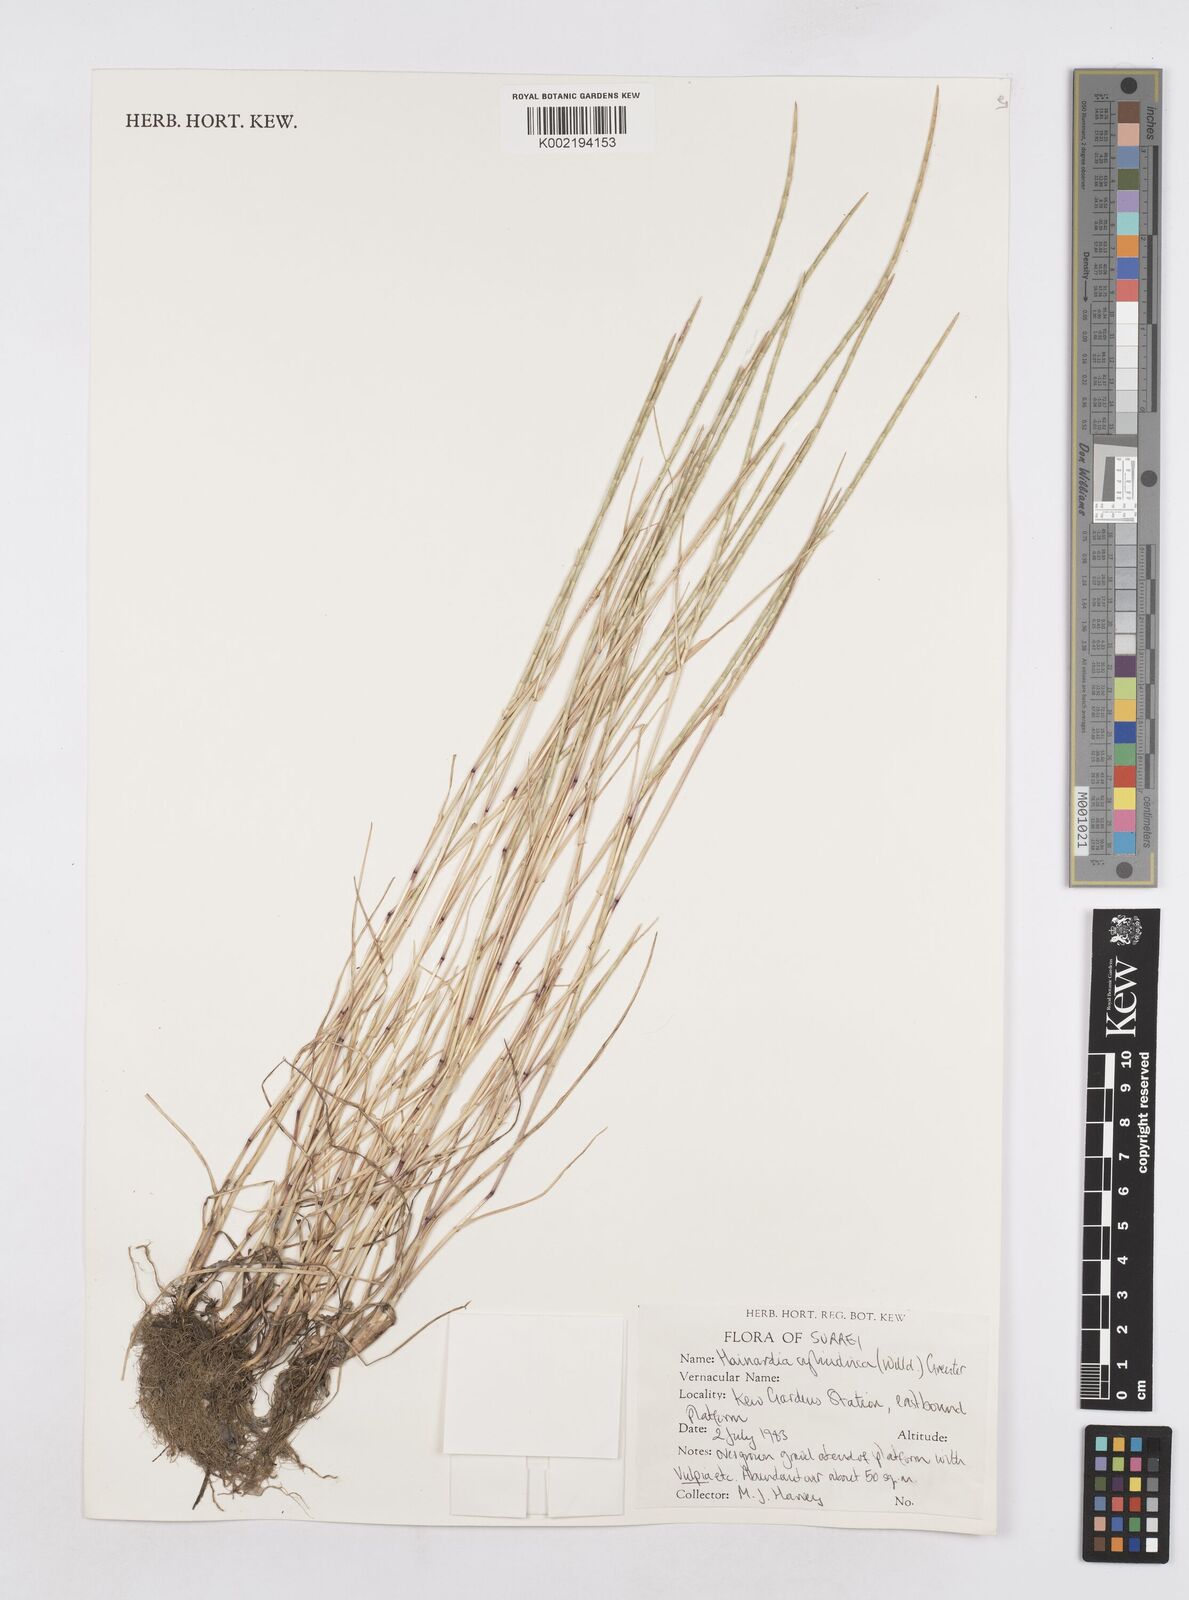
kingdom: Plantae
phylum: Tracheophyta
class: Liliopsida
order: Poales
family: Poaceae
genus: Parapholis
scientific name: Parapholis cylindrica
